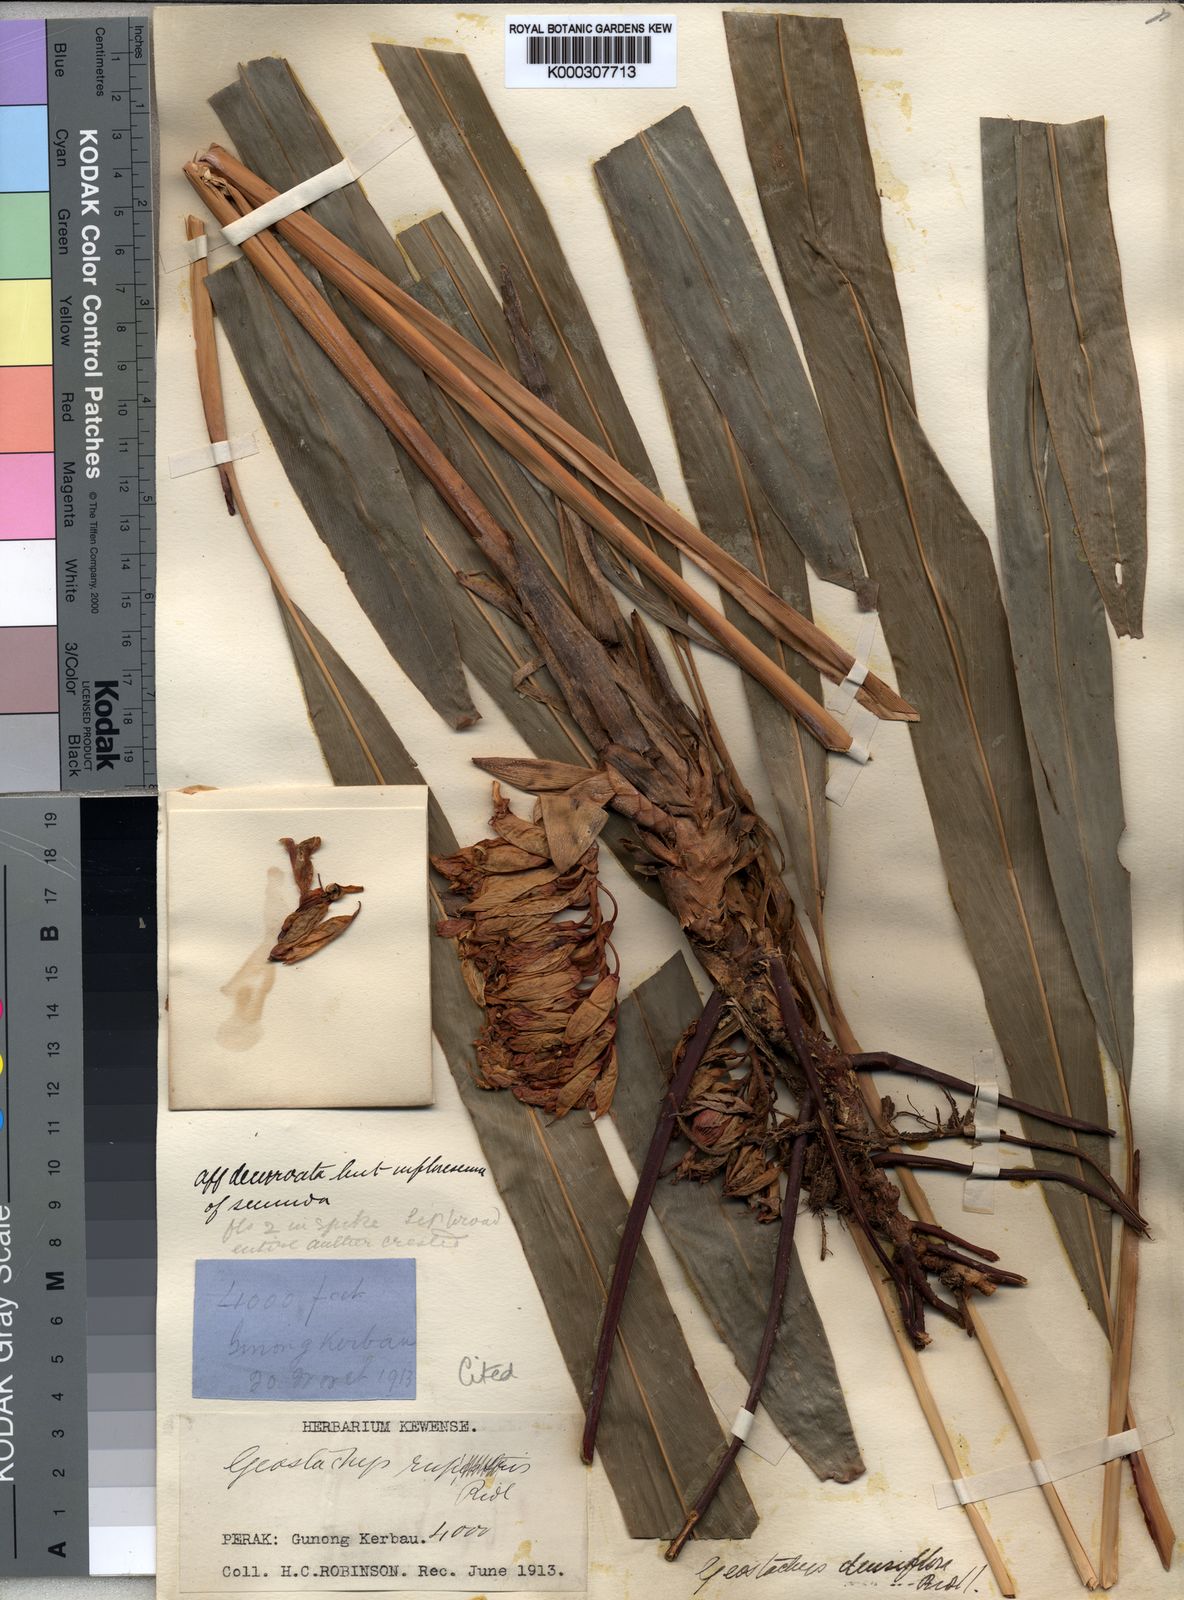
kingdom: Plantae
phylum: Tracheophyta
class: Liliopsida
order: Zingiberales
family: Zingiberaceae
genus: Geostachys
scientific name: Geostachys densiflora
